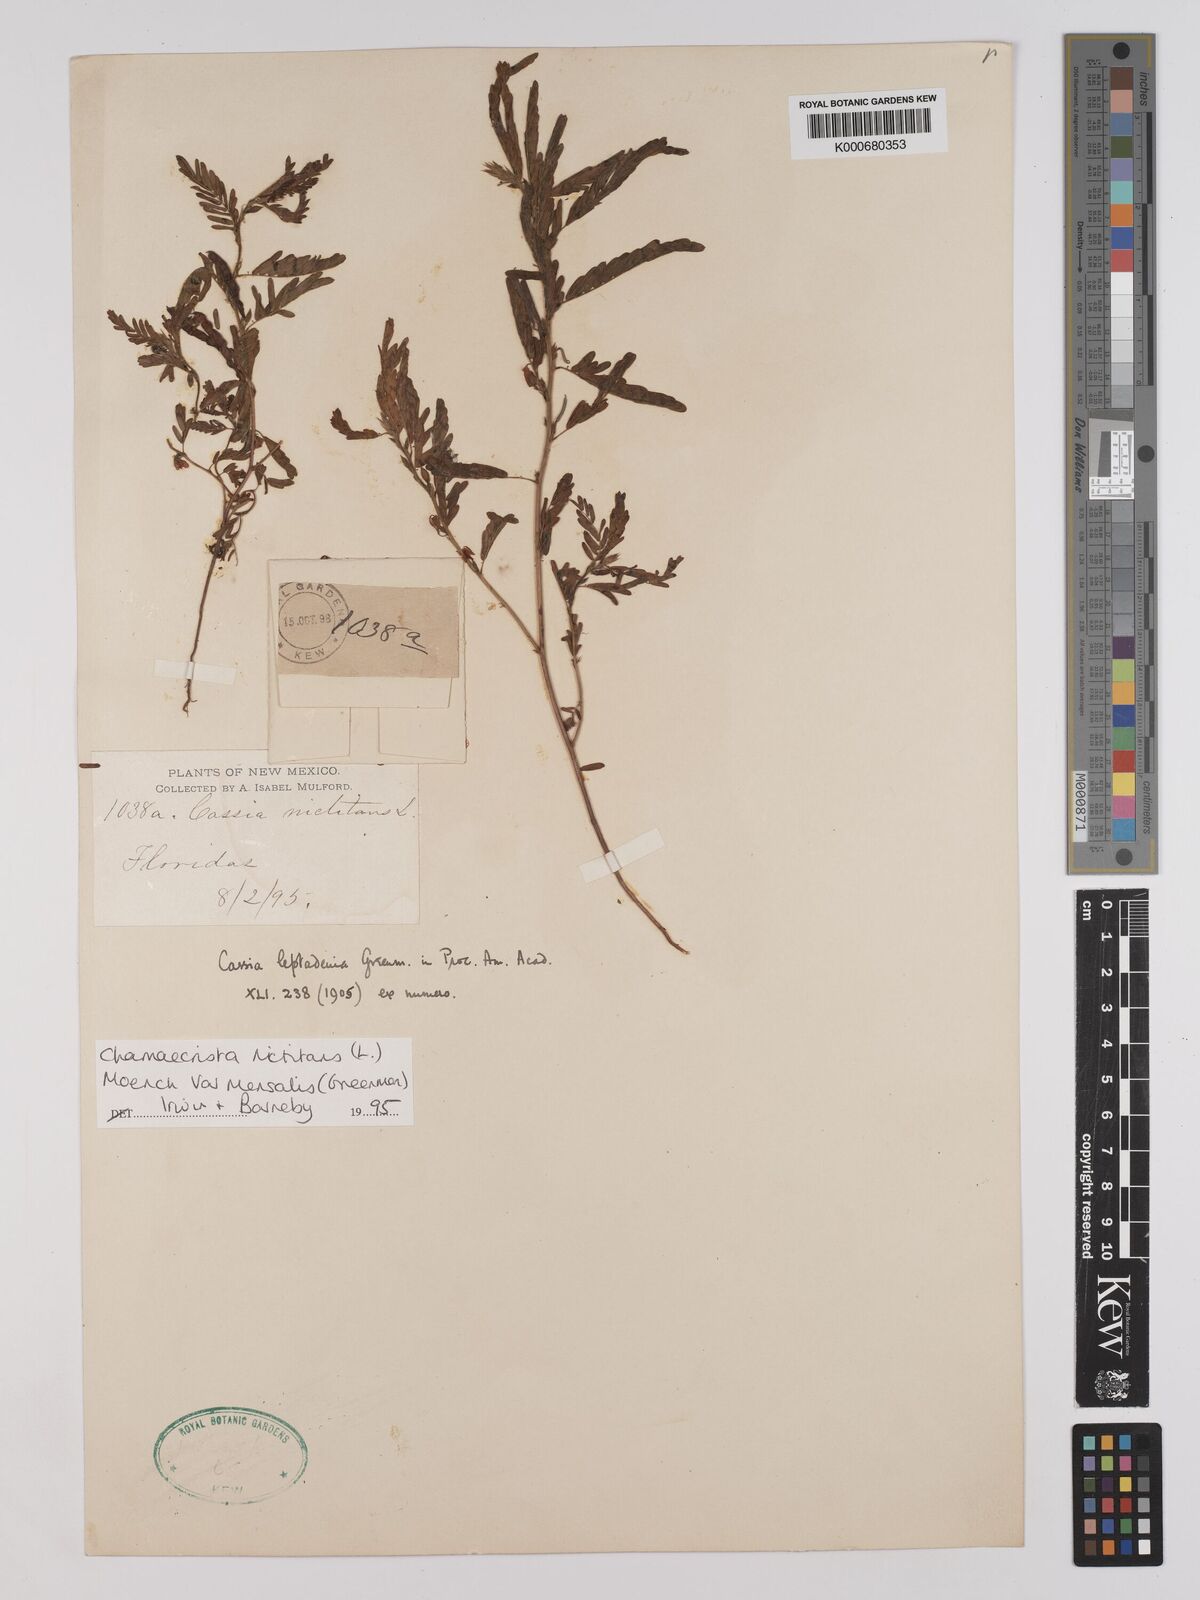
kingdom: Plantae
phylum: Tracheophyta
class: Magnoliopsida
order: Fabales
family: Fabaceae
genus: Chamaecrista
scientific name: Chamaecrista nictitans
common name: Sensitive cassia
